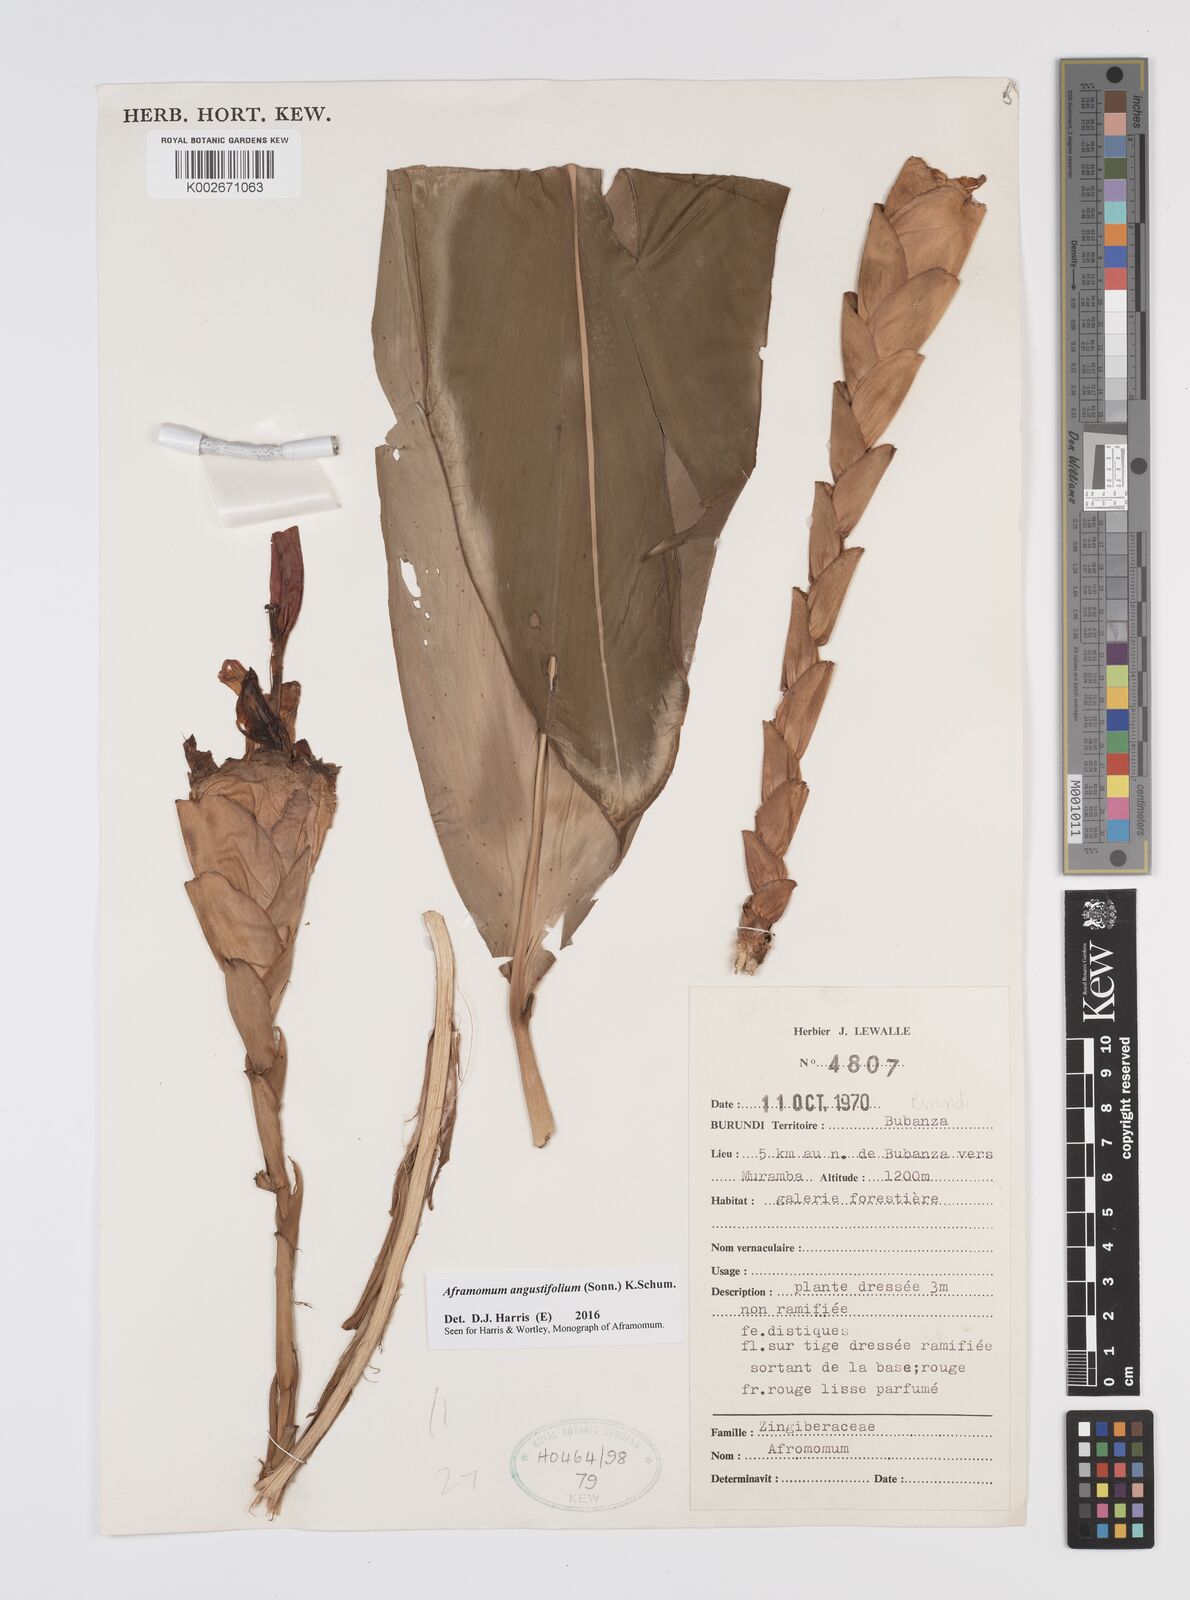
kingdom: Plantae
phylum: Tracheophyta
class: Liliopsida
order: Zingiberales
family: Zingiberaceae
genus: Aframomum
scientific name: Aframomum angustifolium
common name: Guinea grains
